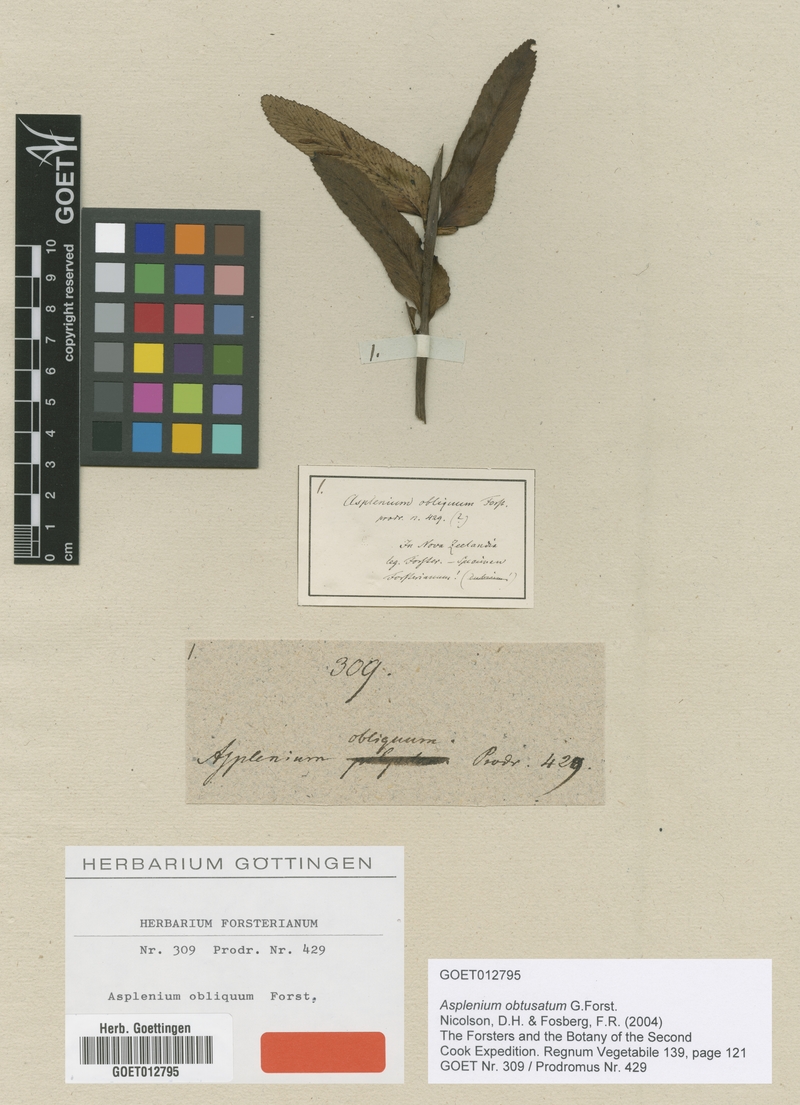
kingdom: Plantae
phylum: Tracheophyta
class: Polypodiopsida
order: Polypodiales
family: Aspleniaceae
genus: Asplenium
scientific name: Asplenium obtusatum
